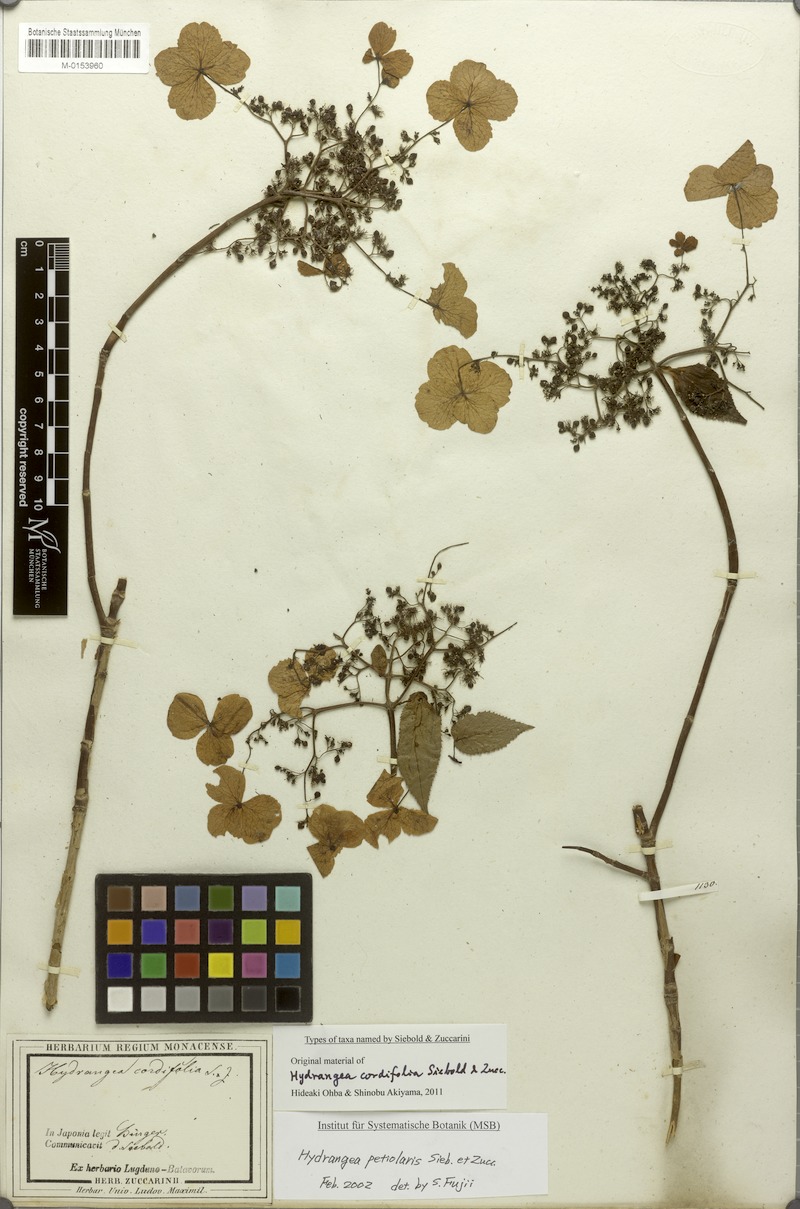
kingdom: Plantae
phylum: Tracheophyta
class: Magnoliopsida
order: Cornales
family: Hydrangeaceae
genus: Hydrangea
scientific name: Hydrangea petiolaris
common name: Japanese climbing hydrangea
